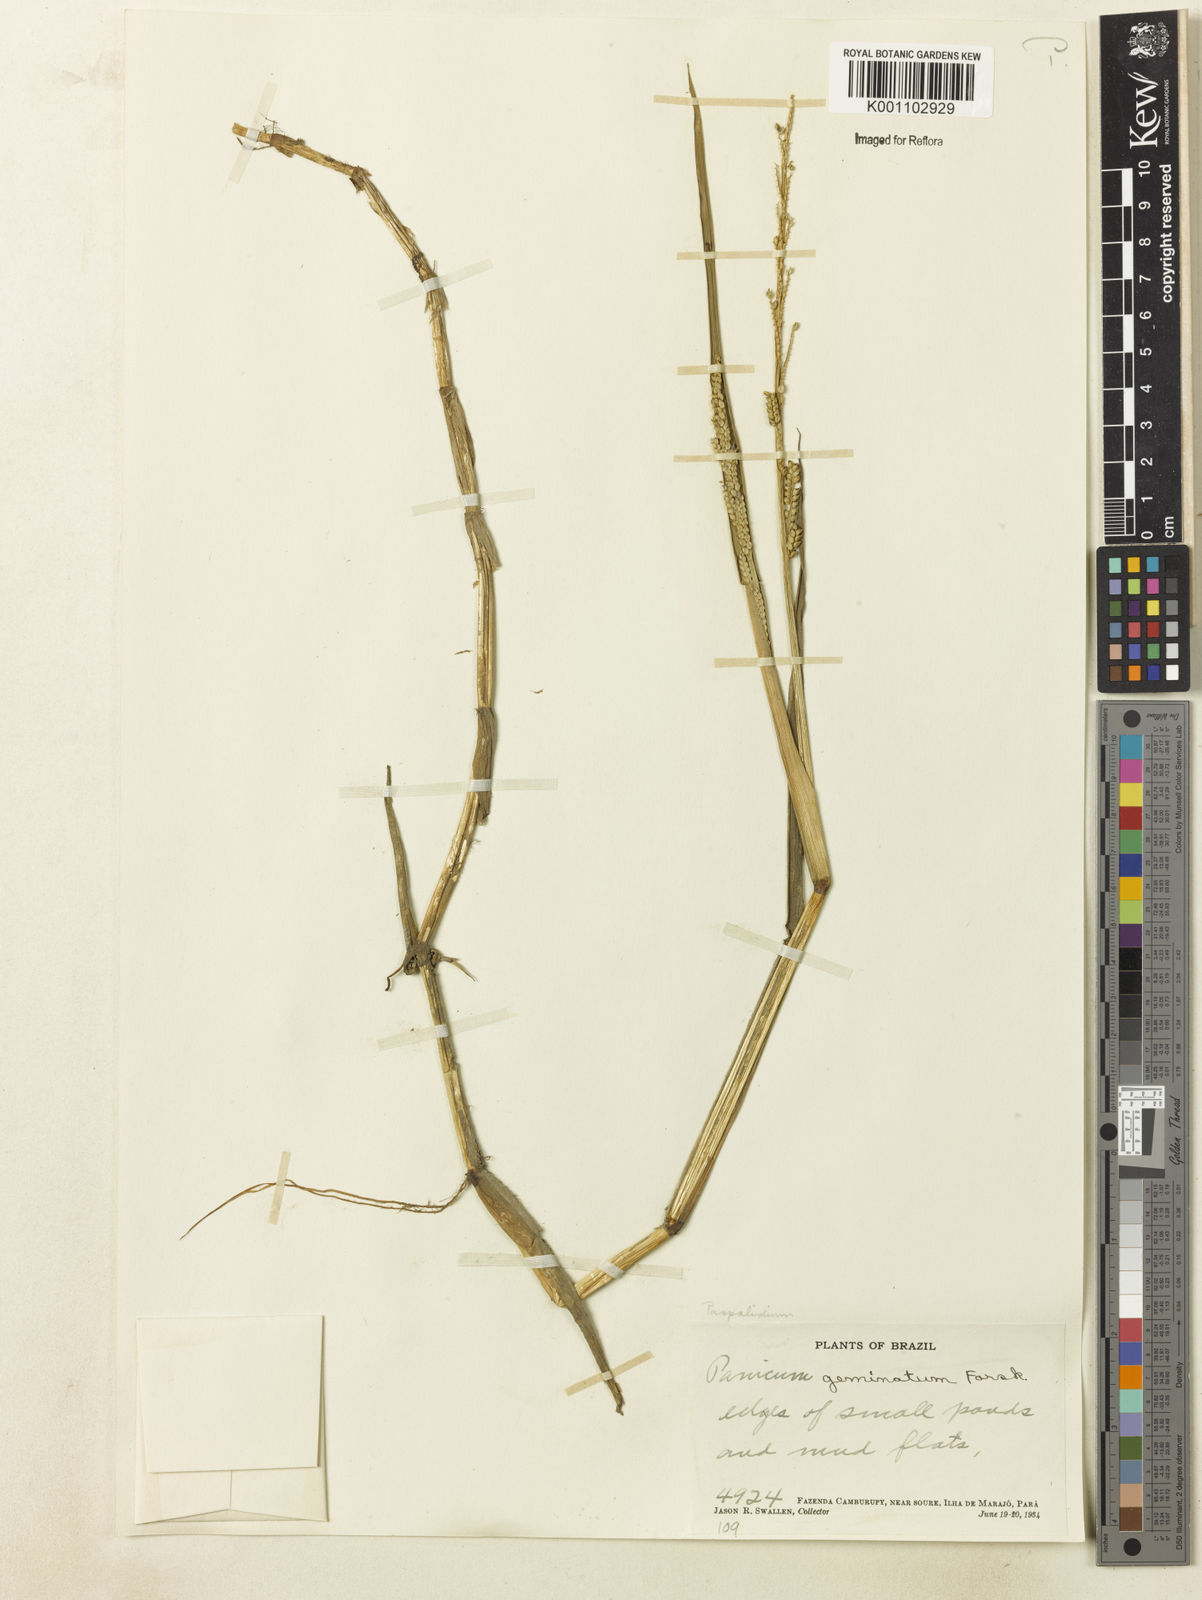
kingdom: Plantae
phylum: Tracheophyta
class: Liliopsida
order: Poales
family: Poaceae
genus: Setaria
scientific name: Setaria geminata
